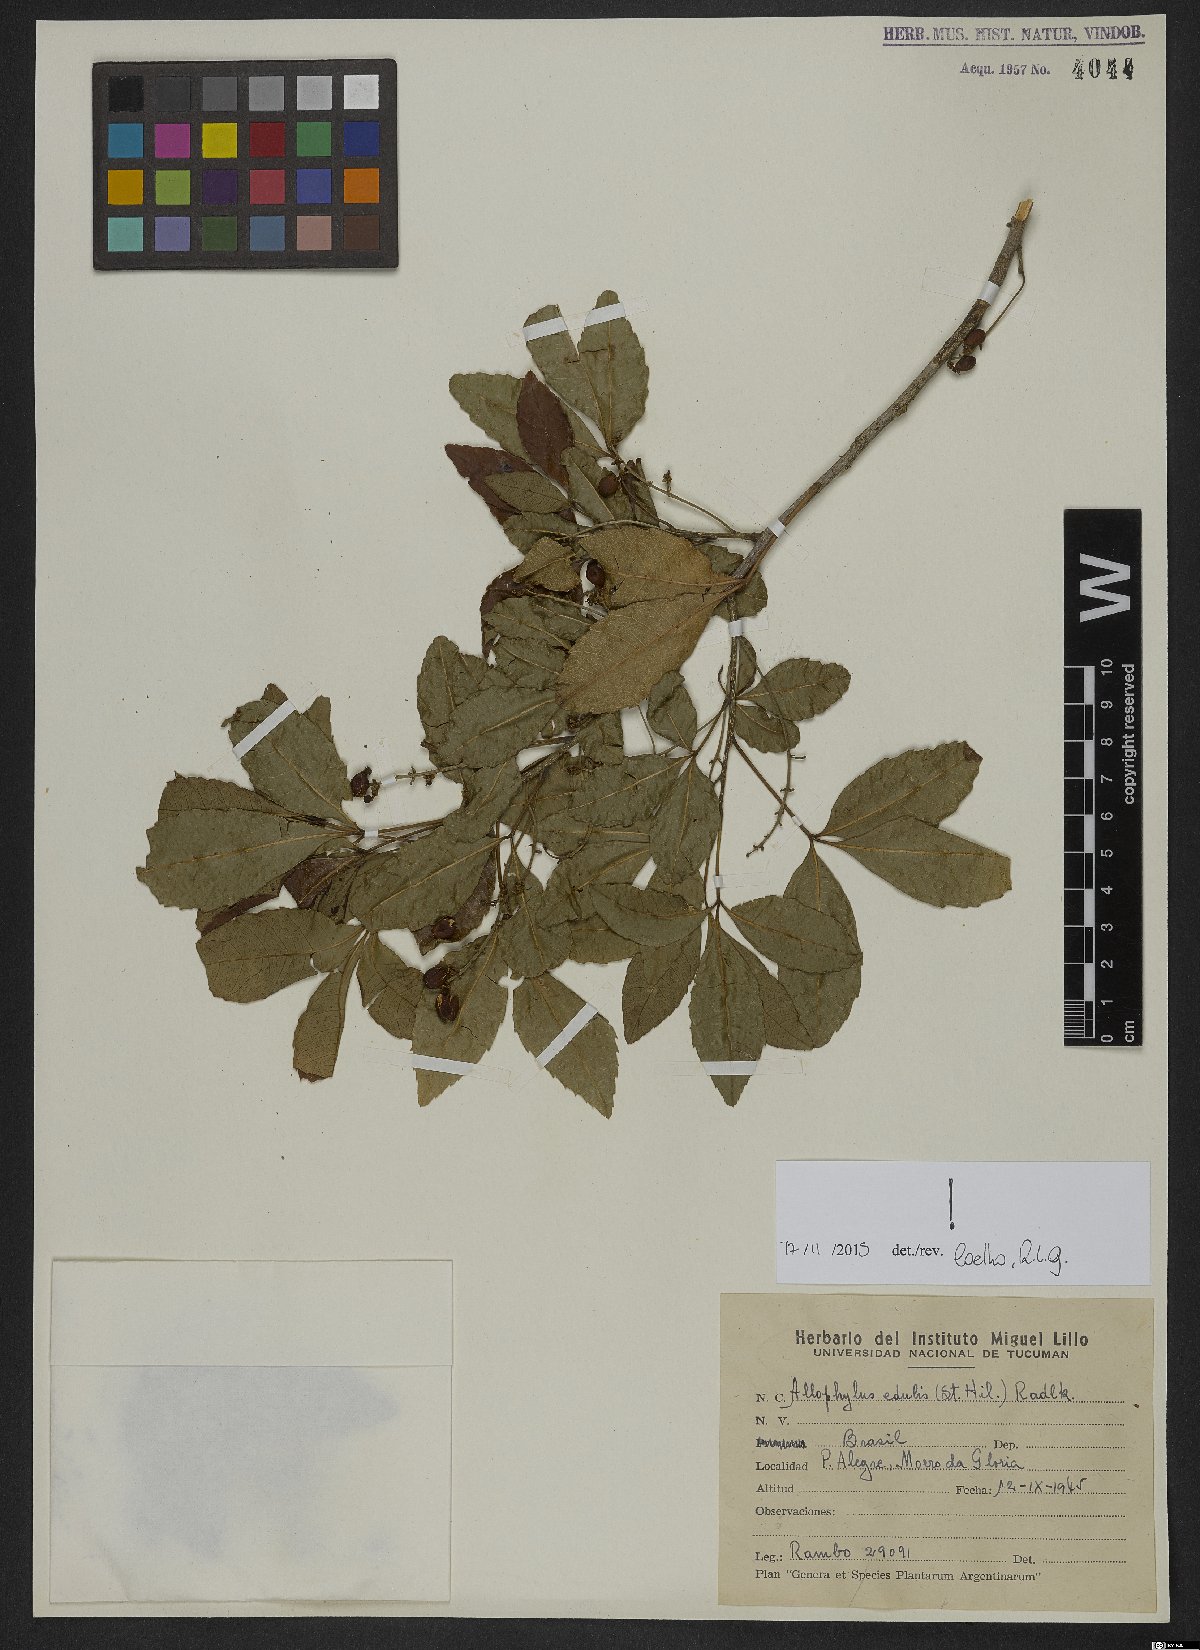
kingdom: Plantae
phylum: Tracheophyta
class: Magnoliopsida
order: Sapindales
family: Sapindaceae
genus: Allophylus
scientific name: Allophylus edulis
